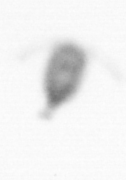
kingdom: Animalia
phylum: Arthropoda
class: Copepoda
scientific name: Copepoda
